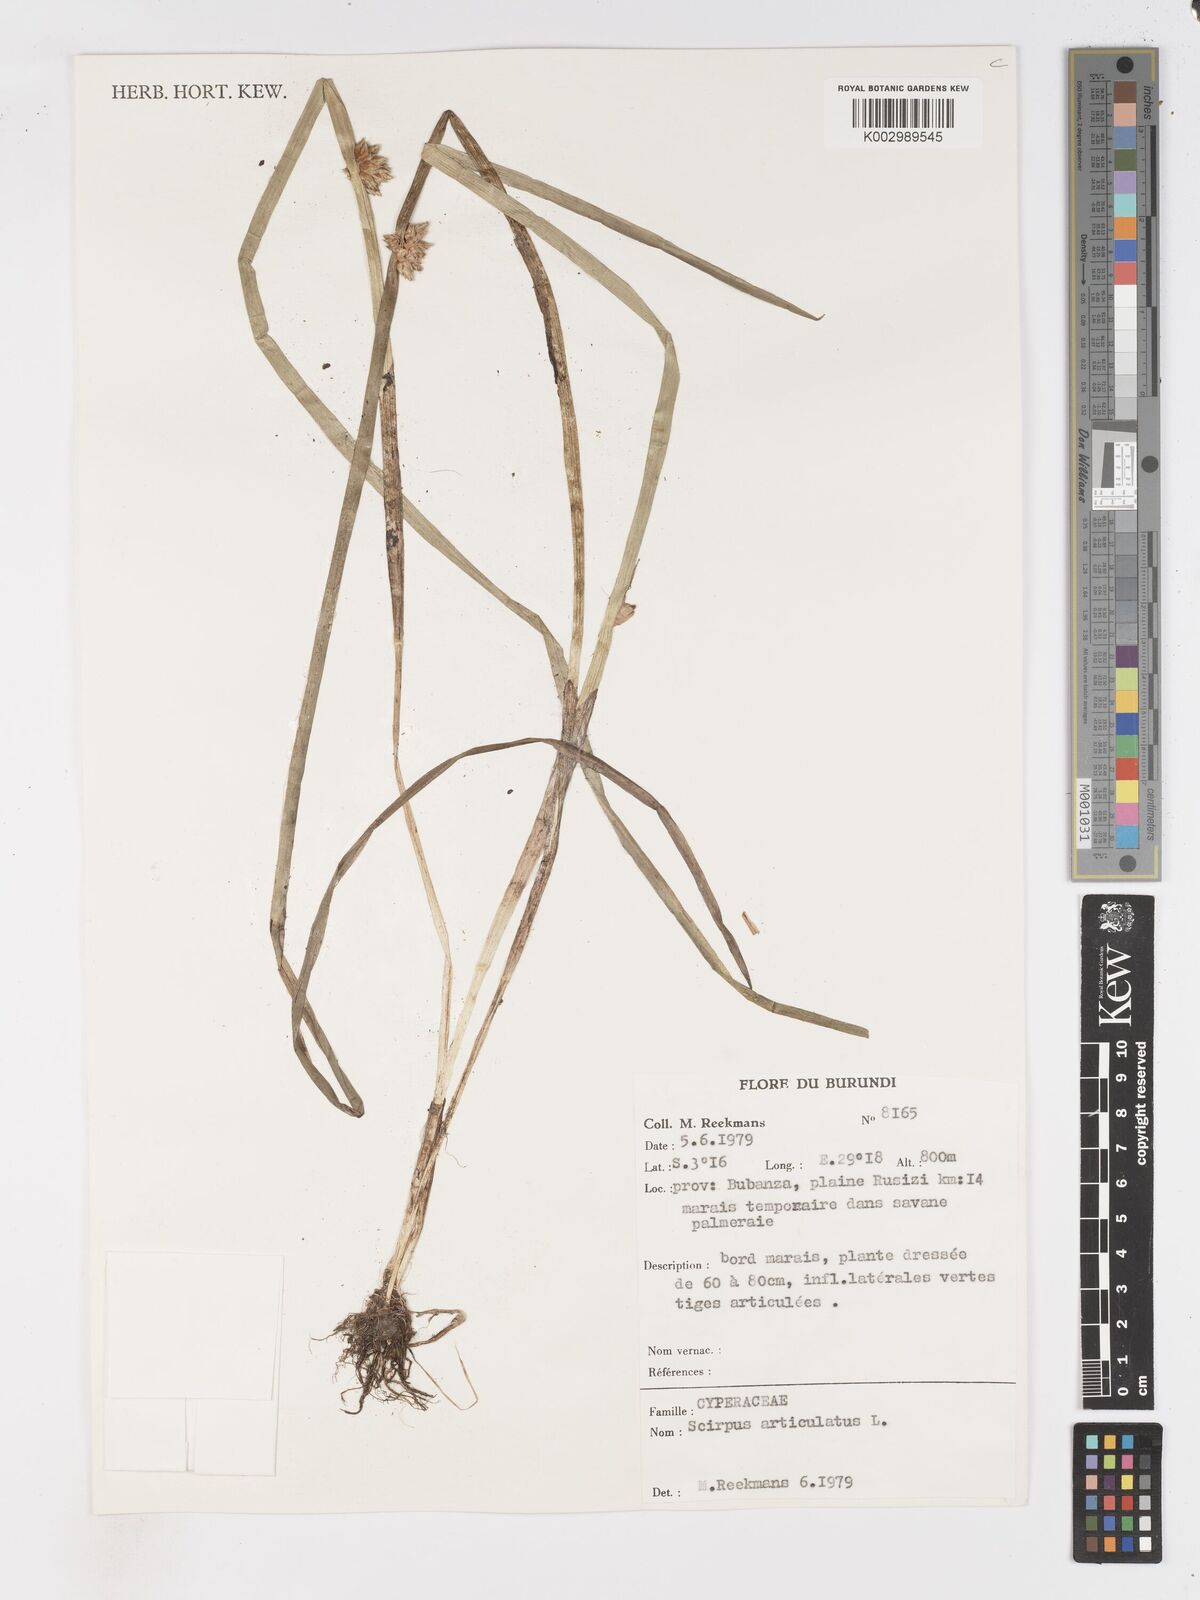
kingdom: Plantae
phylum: Tracheophyta
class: Liliopsida
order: Poales
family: Cyperaceae
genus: Schoenoplectiella
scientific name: Schoenoplectiella articulata
